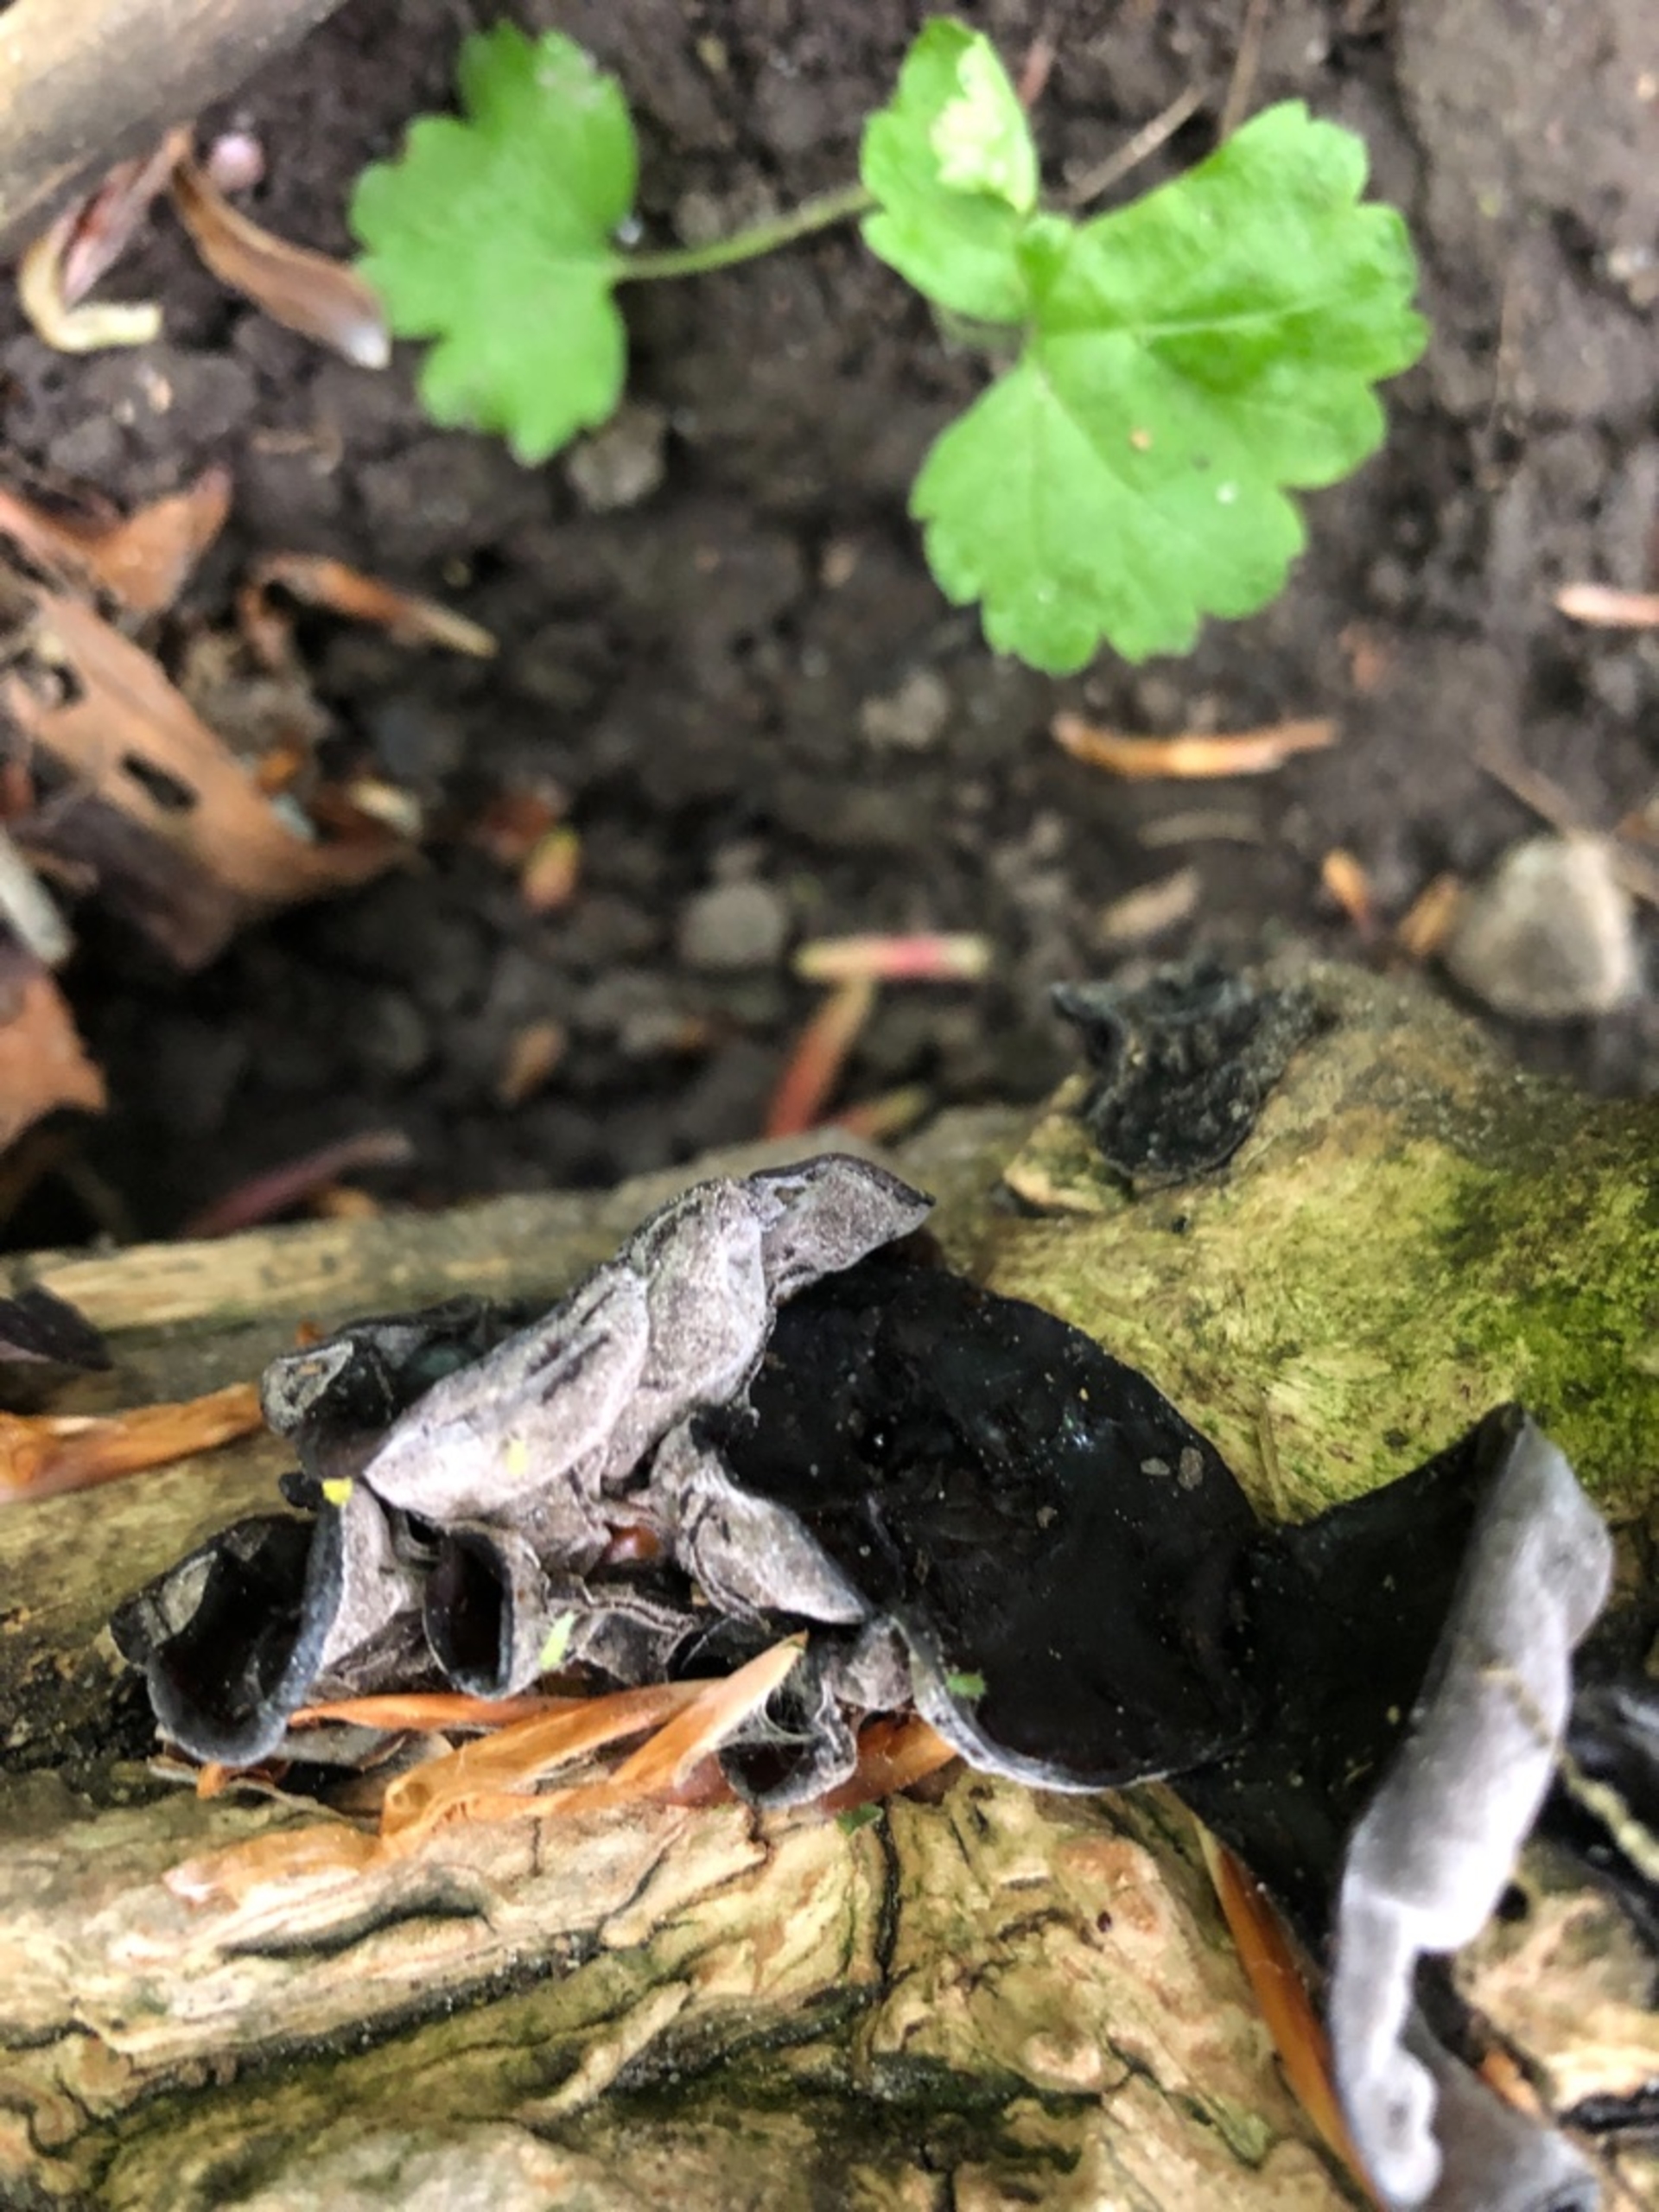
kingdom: Fungi
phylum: Basidiomycota
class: Agaricomycetes
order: Auriculariales
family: Auriculariaceae
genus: Auricularia
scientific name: Auricularia
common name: Judasøre
